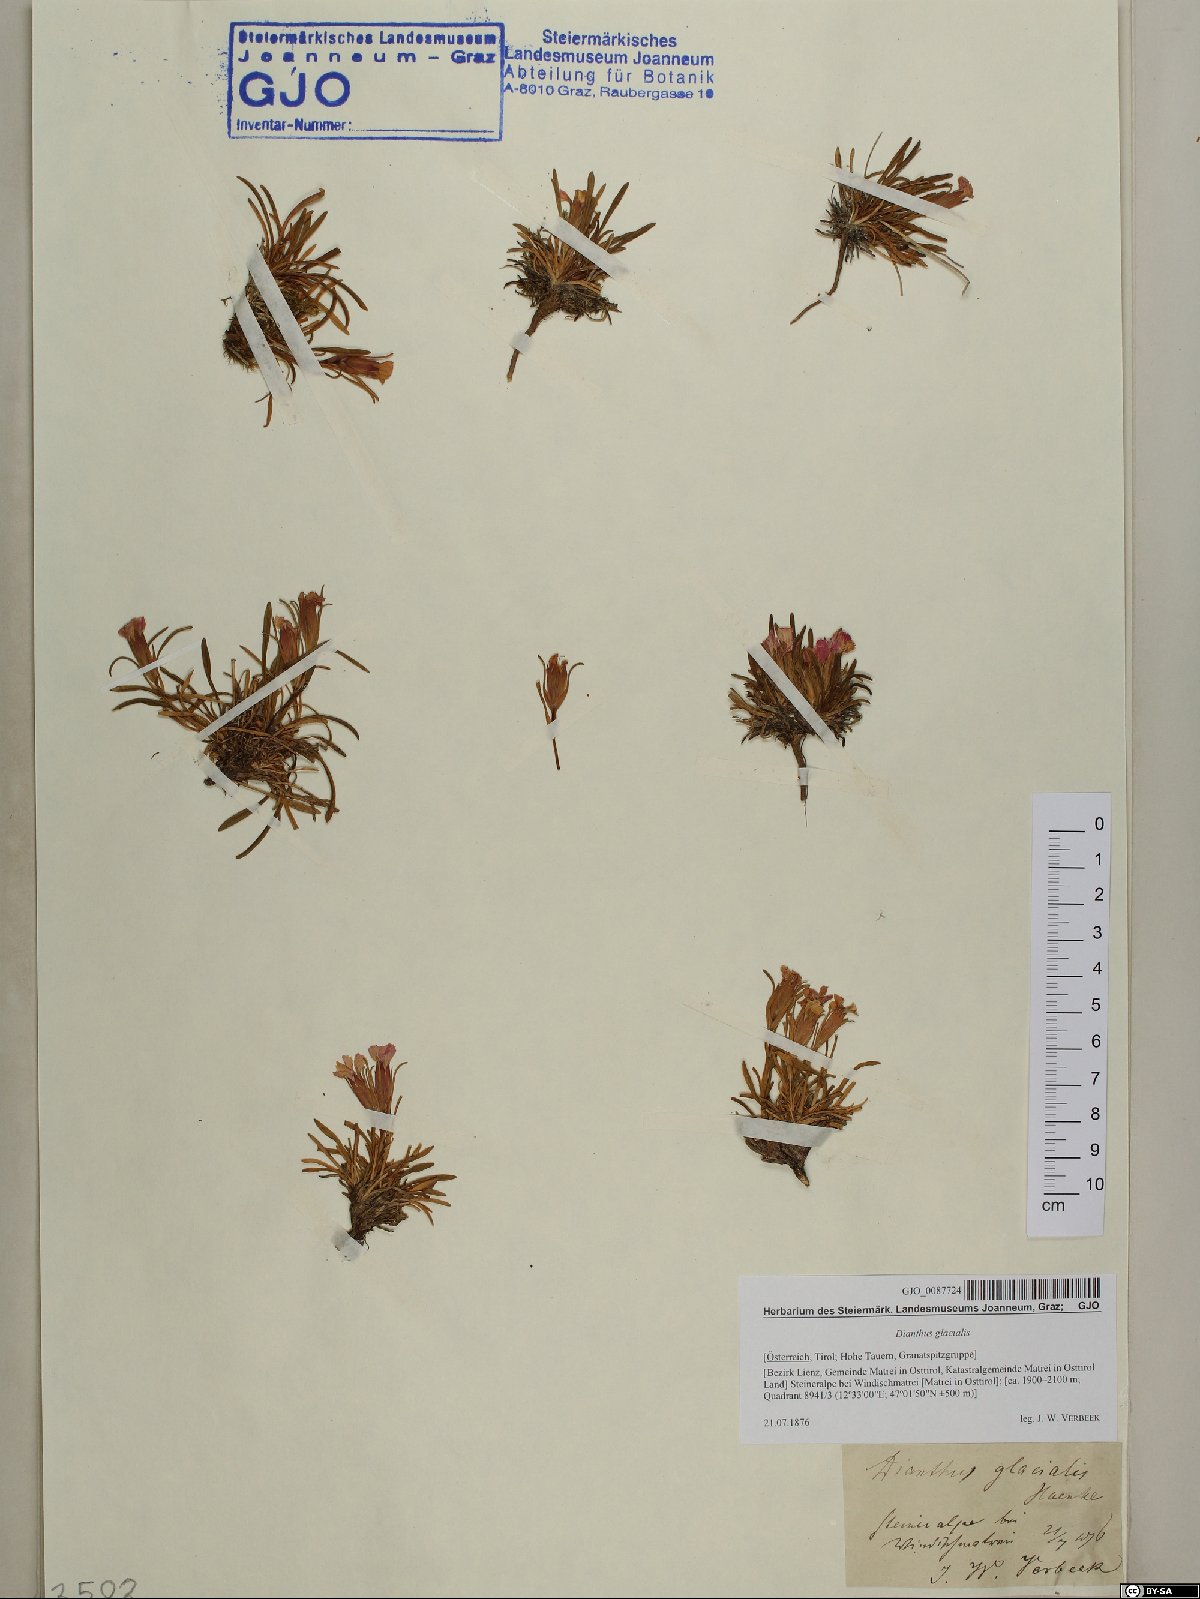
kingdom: Plantae
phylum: Tracheophyta
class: Magnoliopsida
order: Caryophyllales
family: Caryophyllaceae
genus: Dianthus
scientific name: Dianthus glacialis
